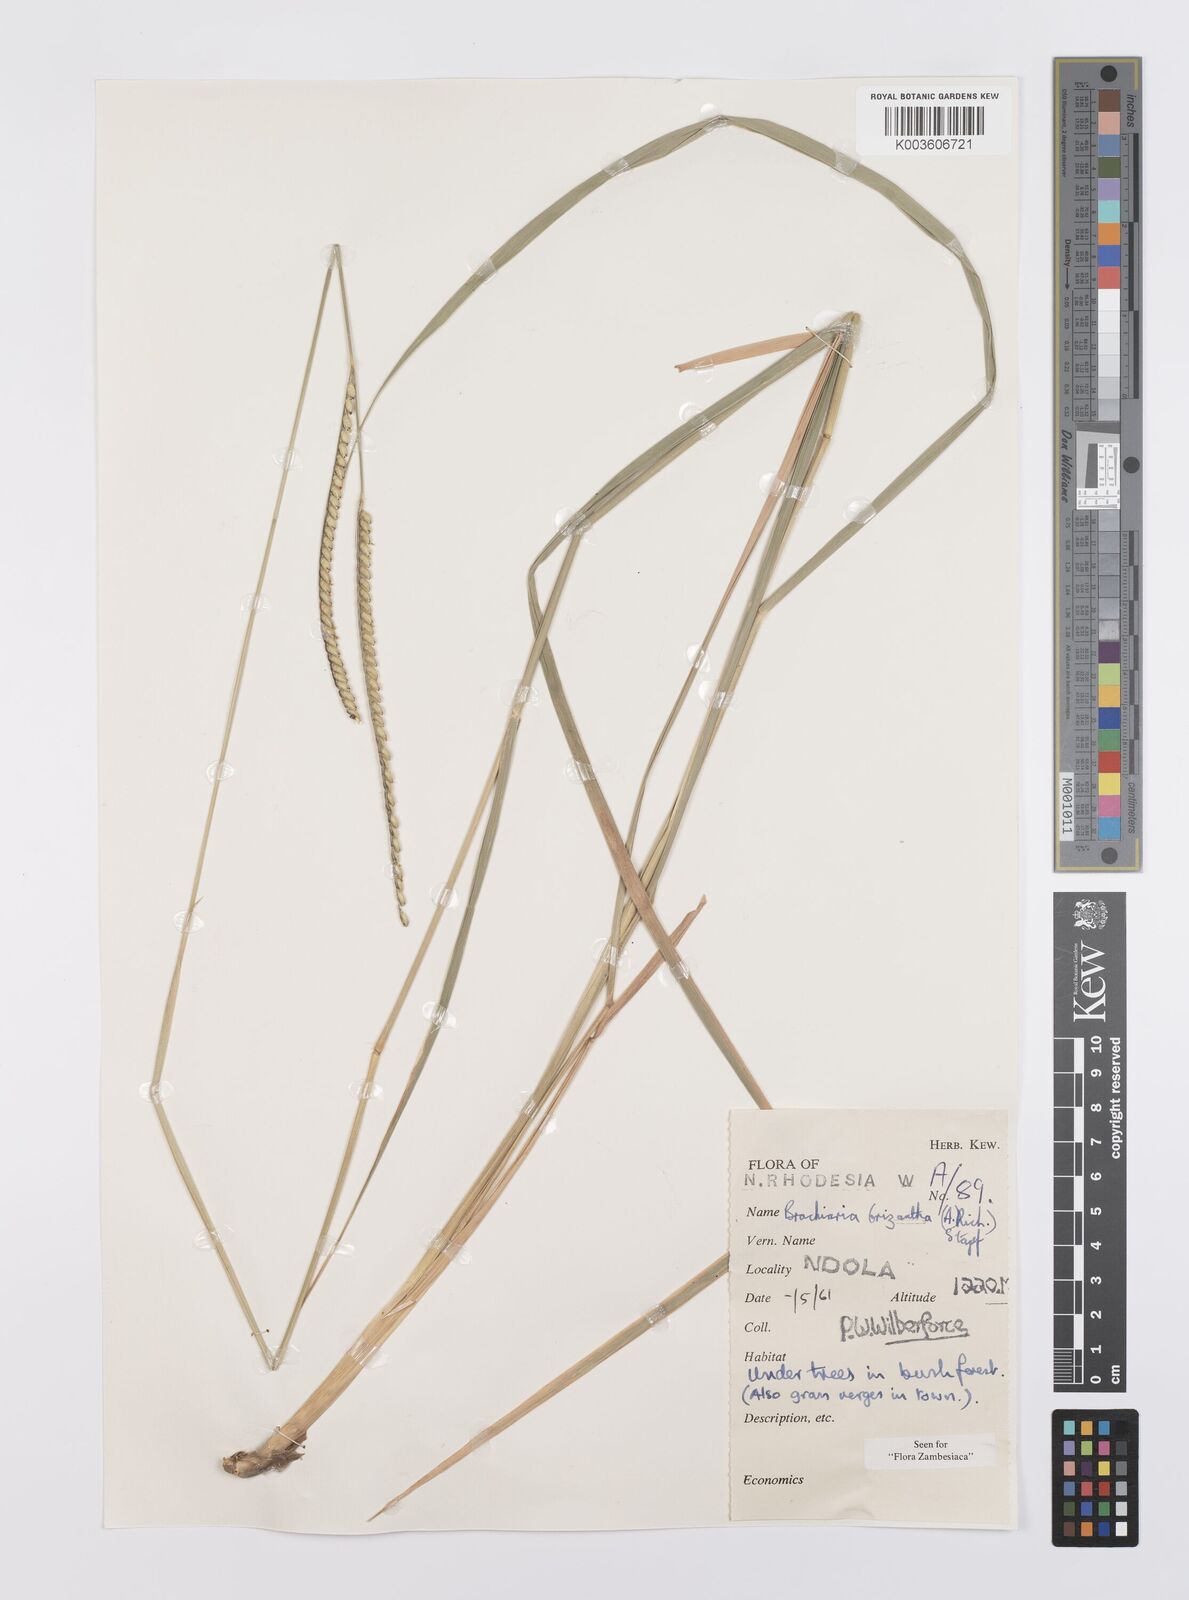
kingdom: Plantae
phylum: Tracheophyta
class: Liliopsida
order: Poales
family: Poaceae
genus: Urochloa
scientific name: Urochloa brizantha
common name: Palisade signalgrass
